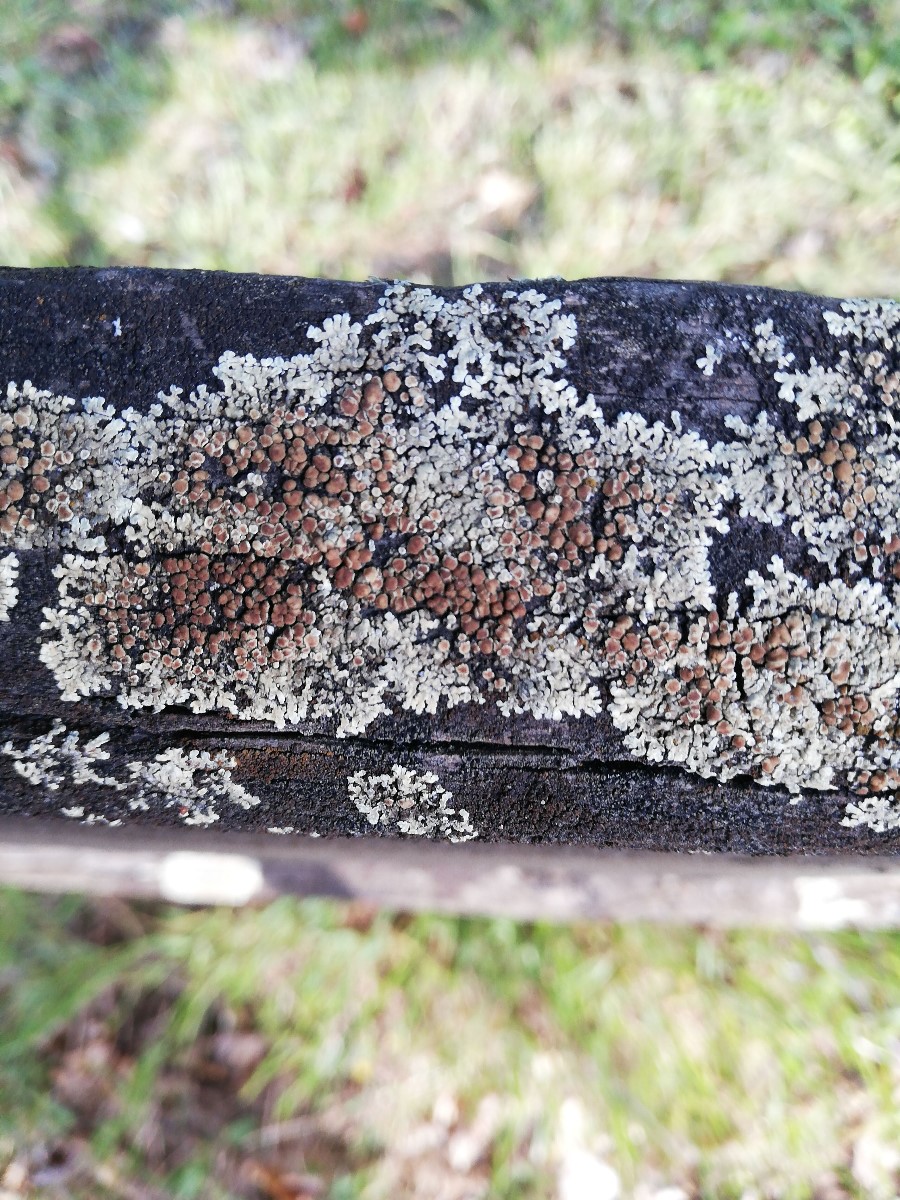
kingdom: Fungi
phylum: Ascomycota
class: Lecanoromycetes
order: Lecanorales
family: Lecanoraceae
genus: Protoparmeliopsis
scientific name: Protoparmeliopsis muralis
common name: randfliget kantskivelav
